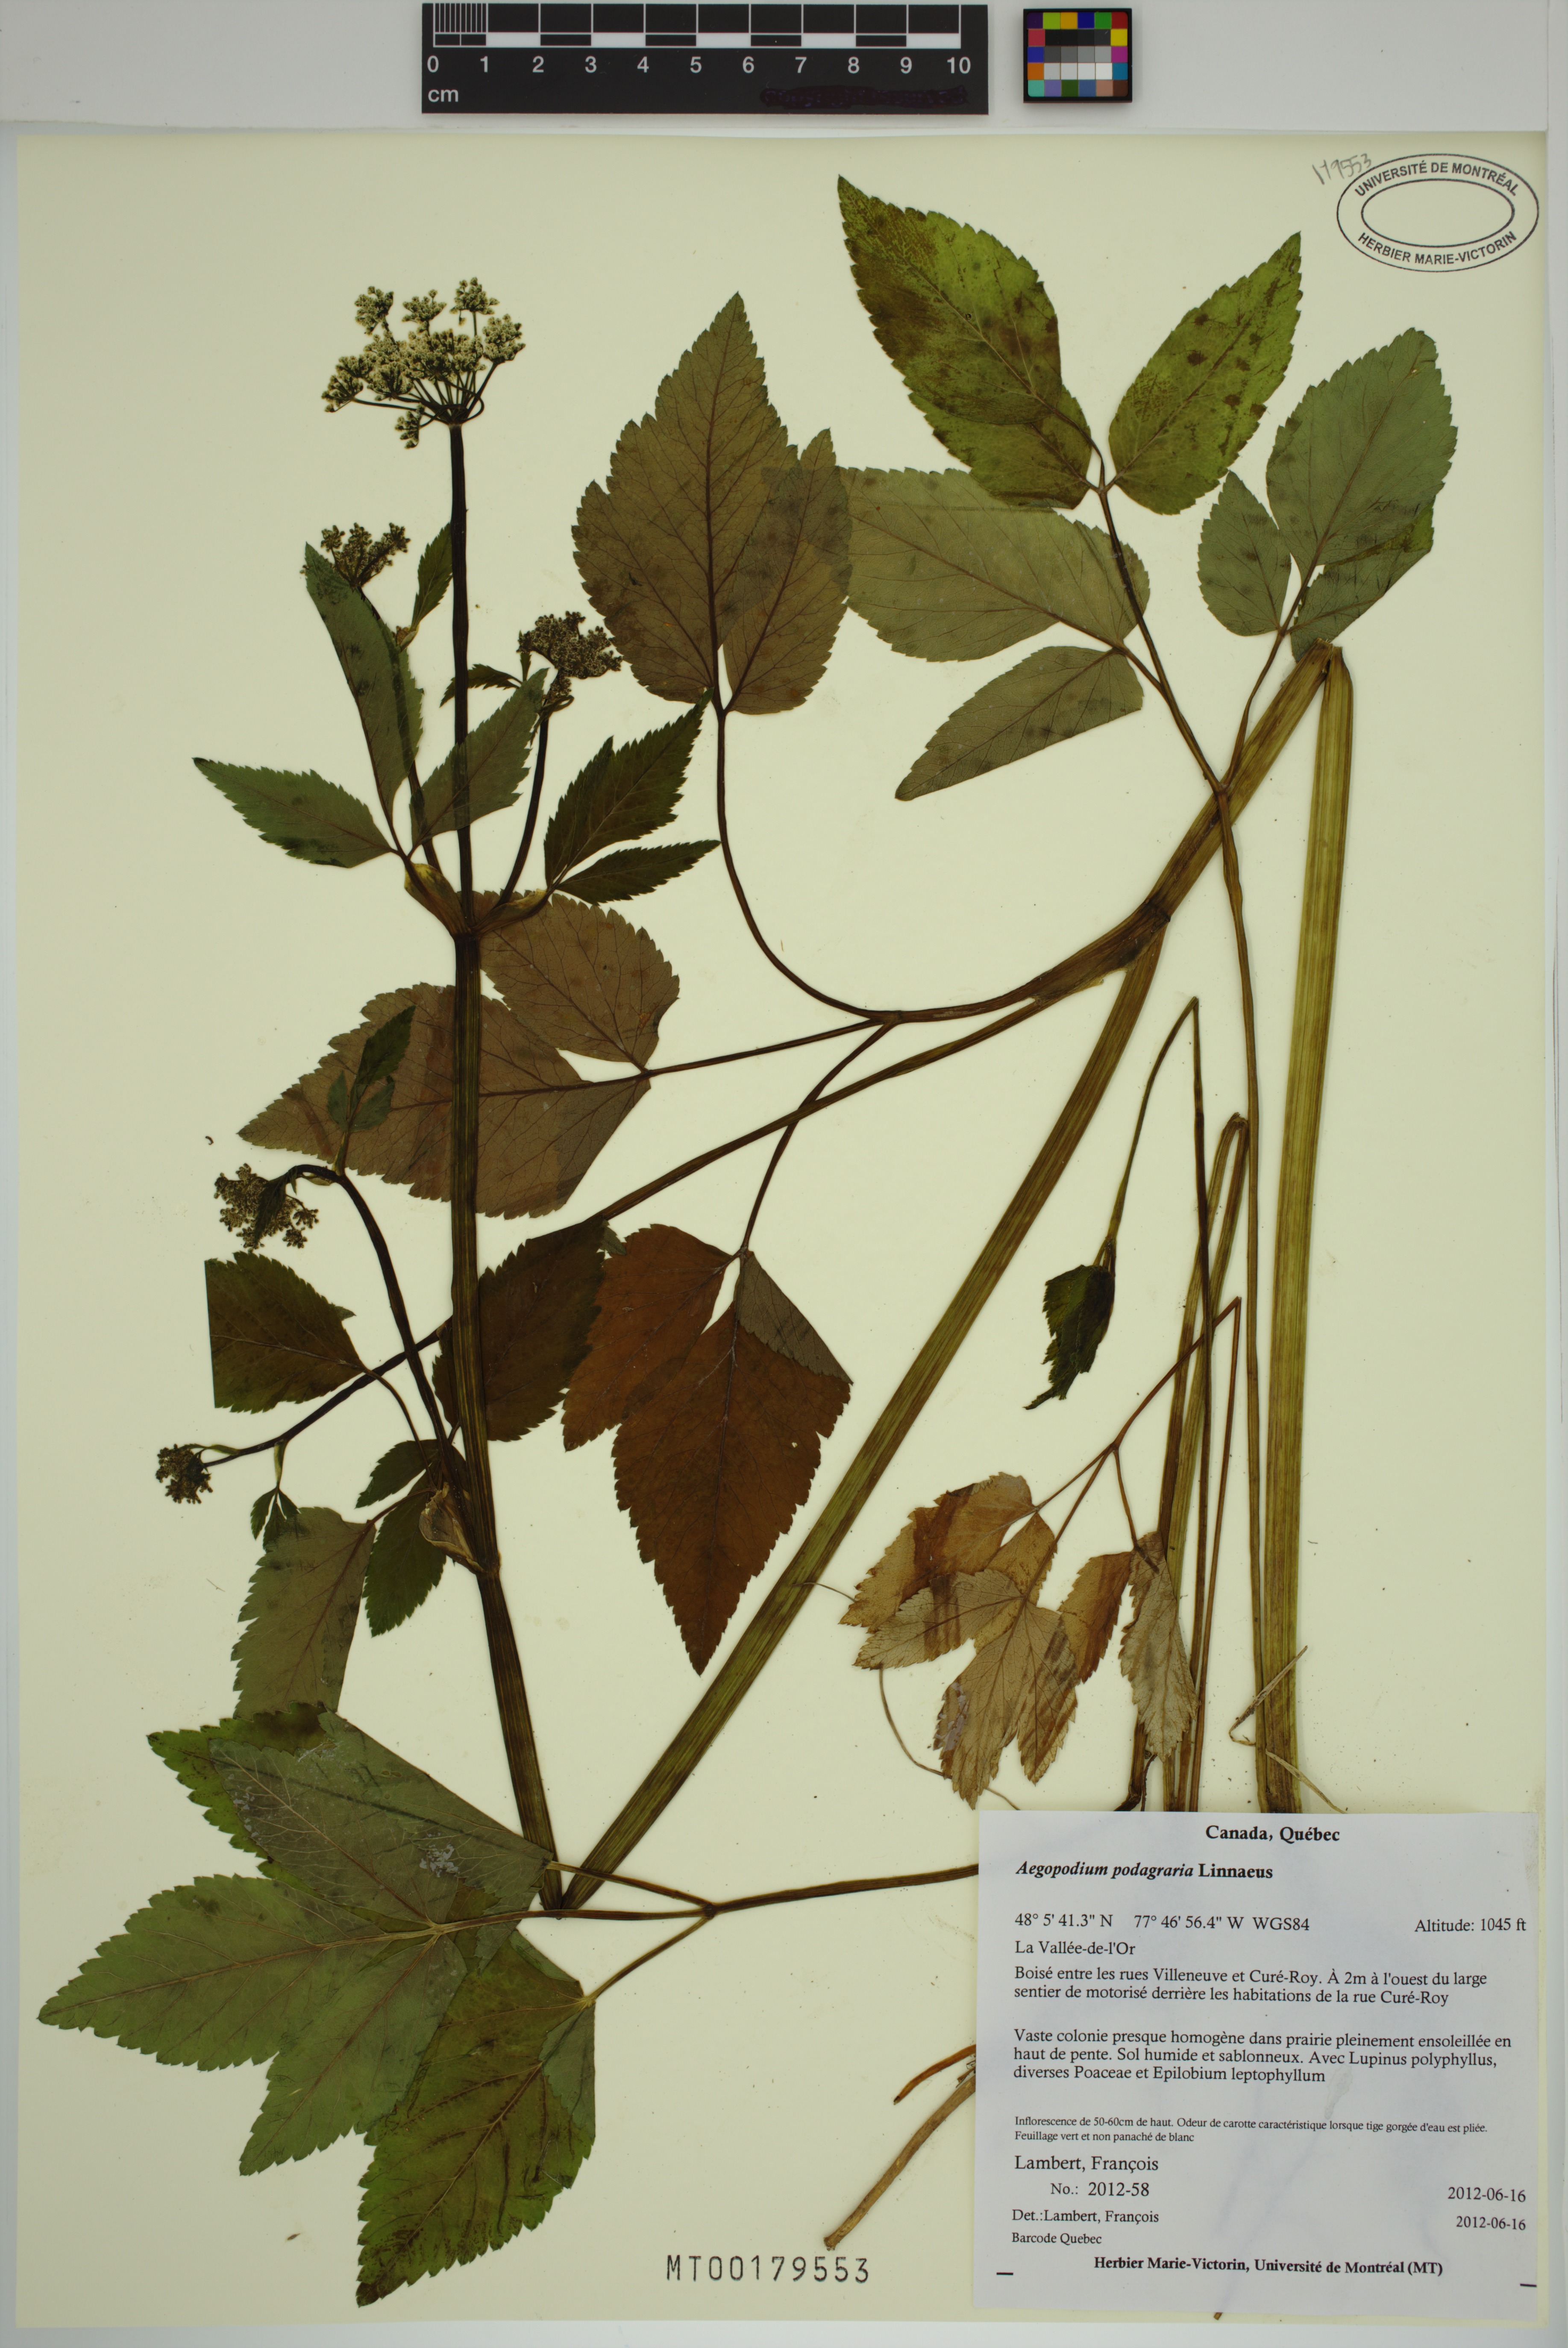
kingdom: Plantae
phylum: Tracheophyta
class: Magnoliopsida
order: Apiales
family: Apiaceae
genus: Aegopodium
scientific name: Aegopodium podagraria
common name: Ground-elder
